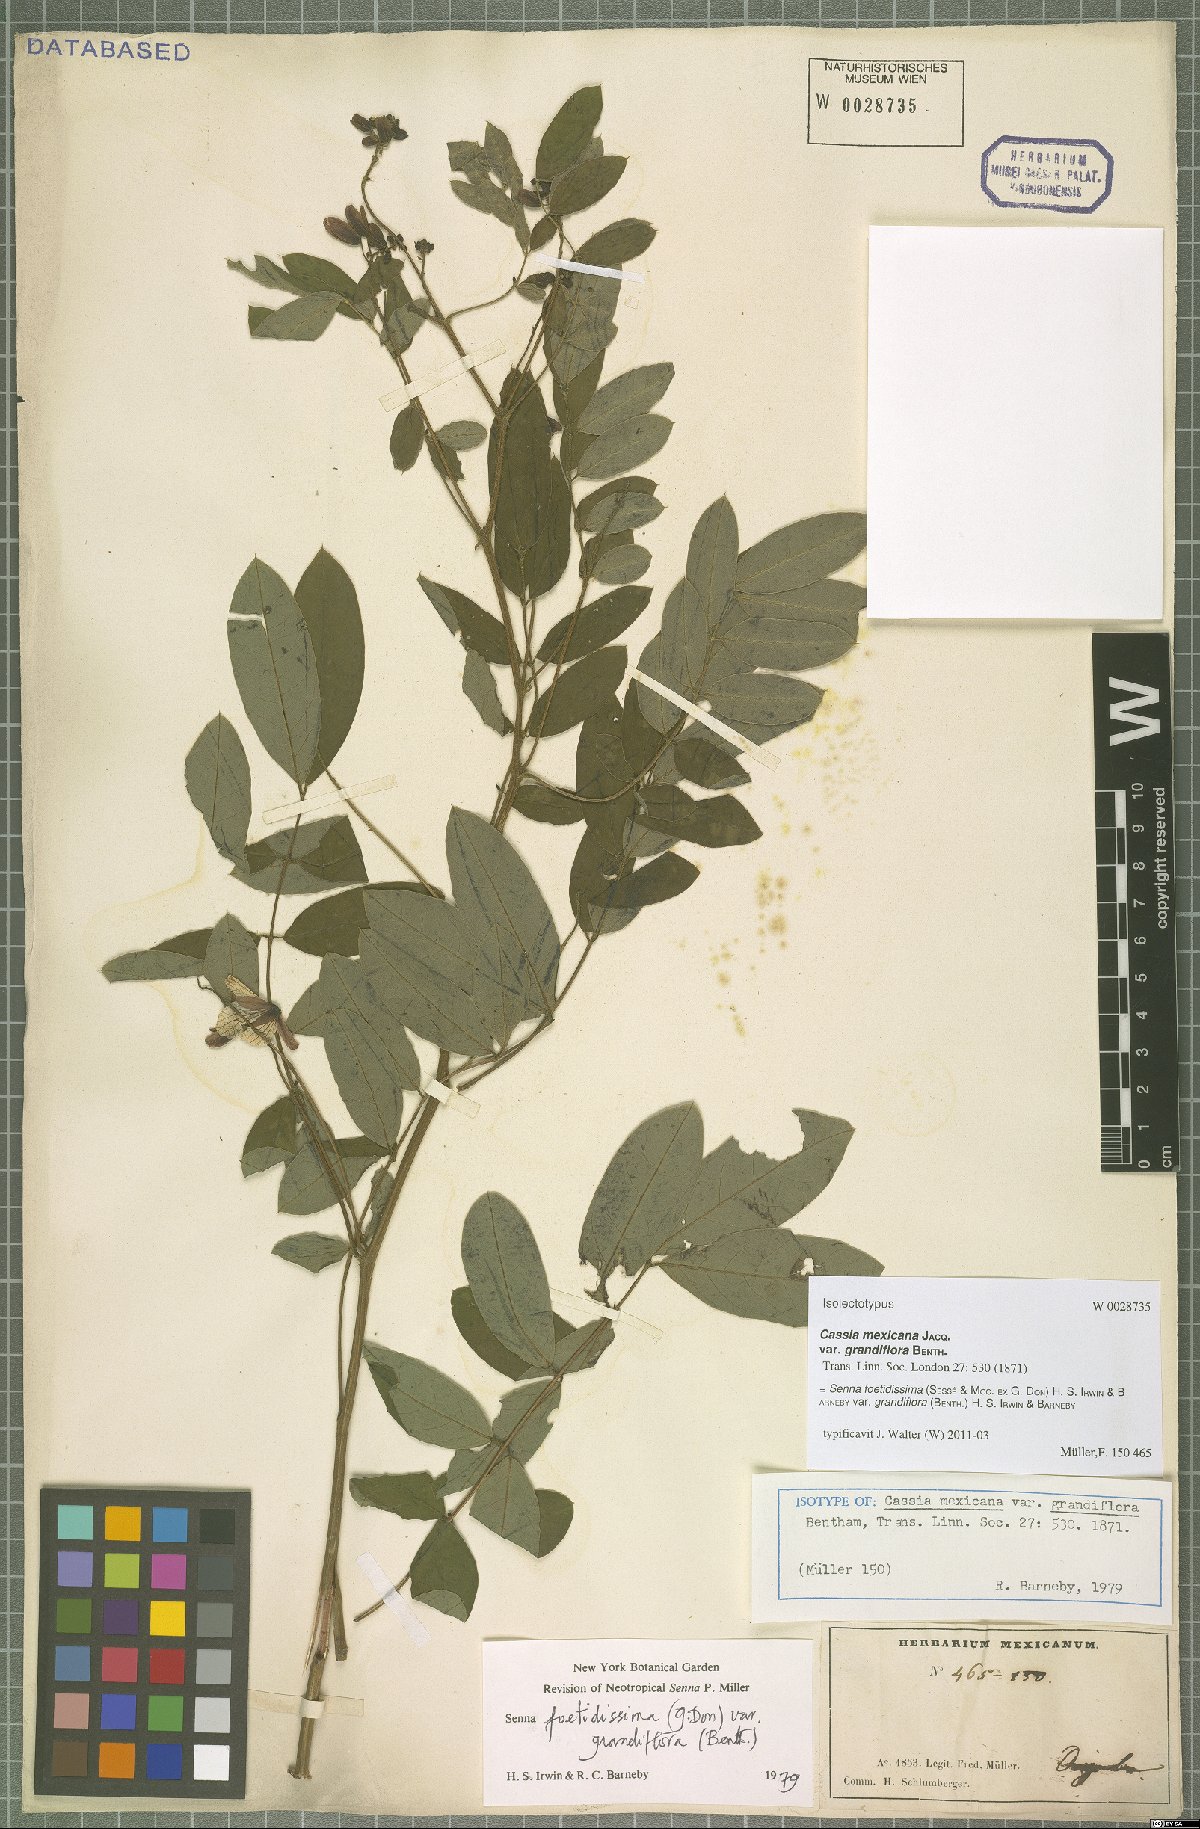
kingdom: Plantae
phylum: Tracheophyta
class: Magnoliopsida
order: Fabales
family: Fabaceae
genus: Senna
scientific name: Senna foetidissima
